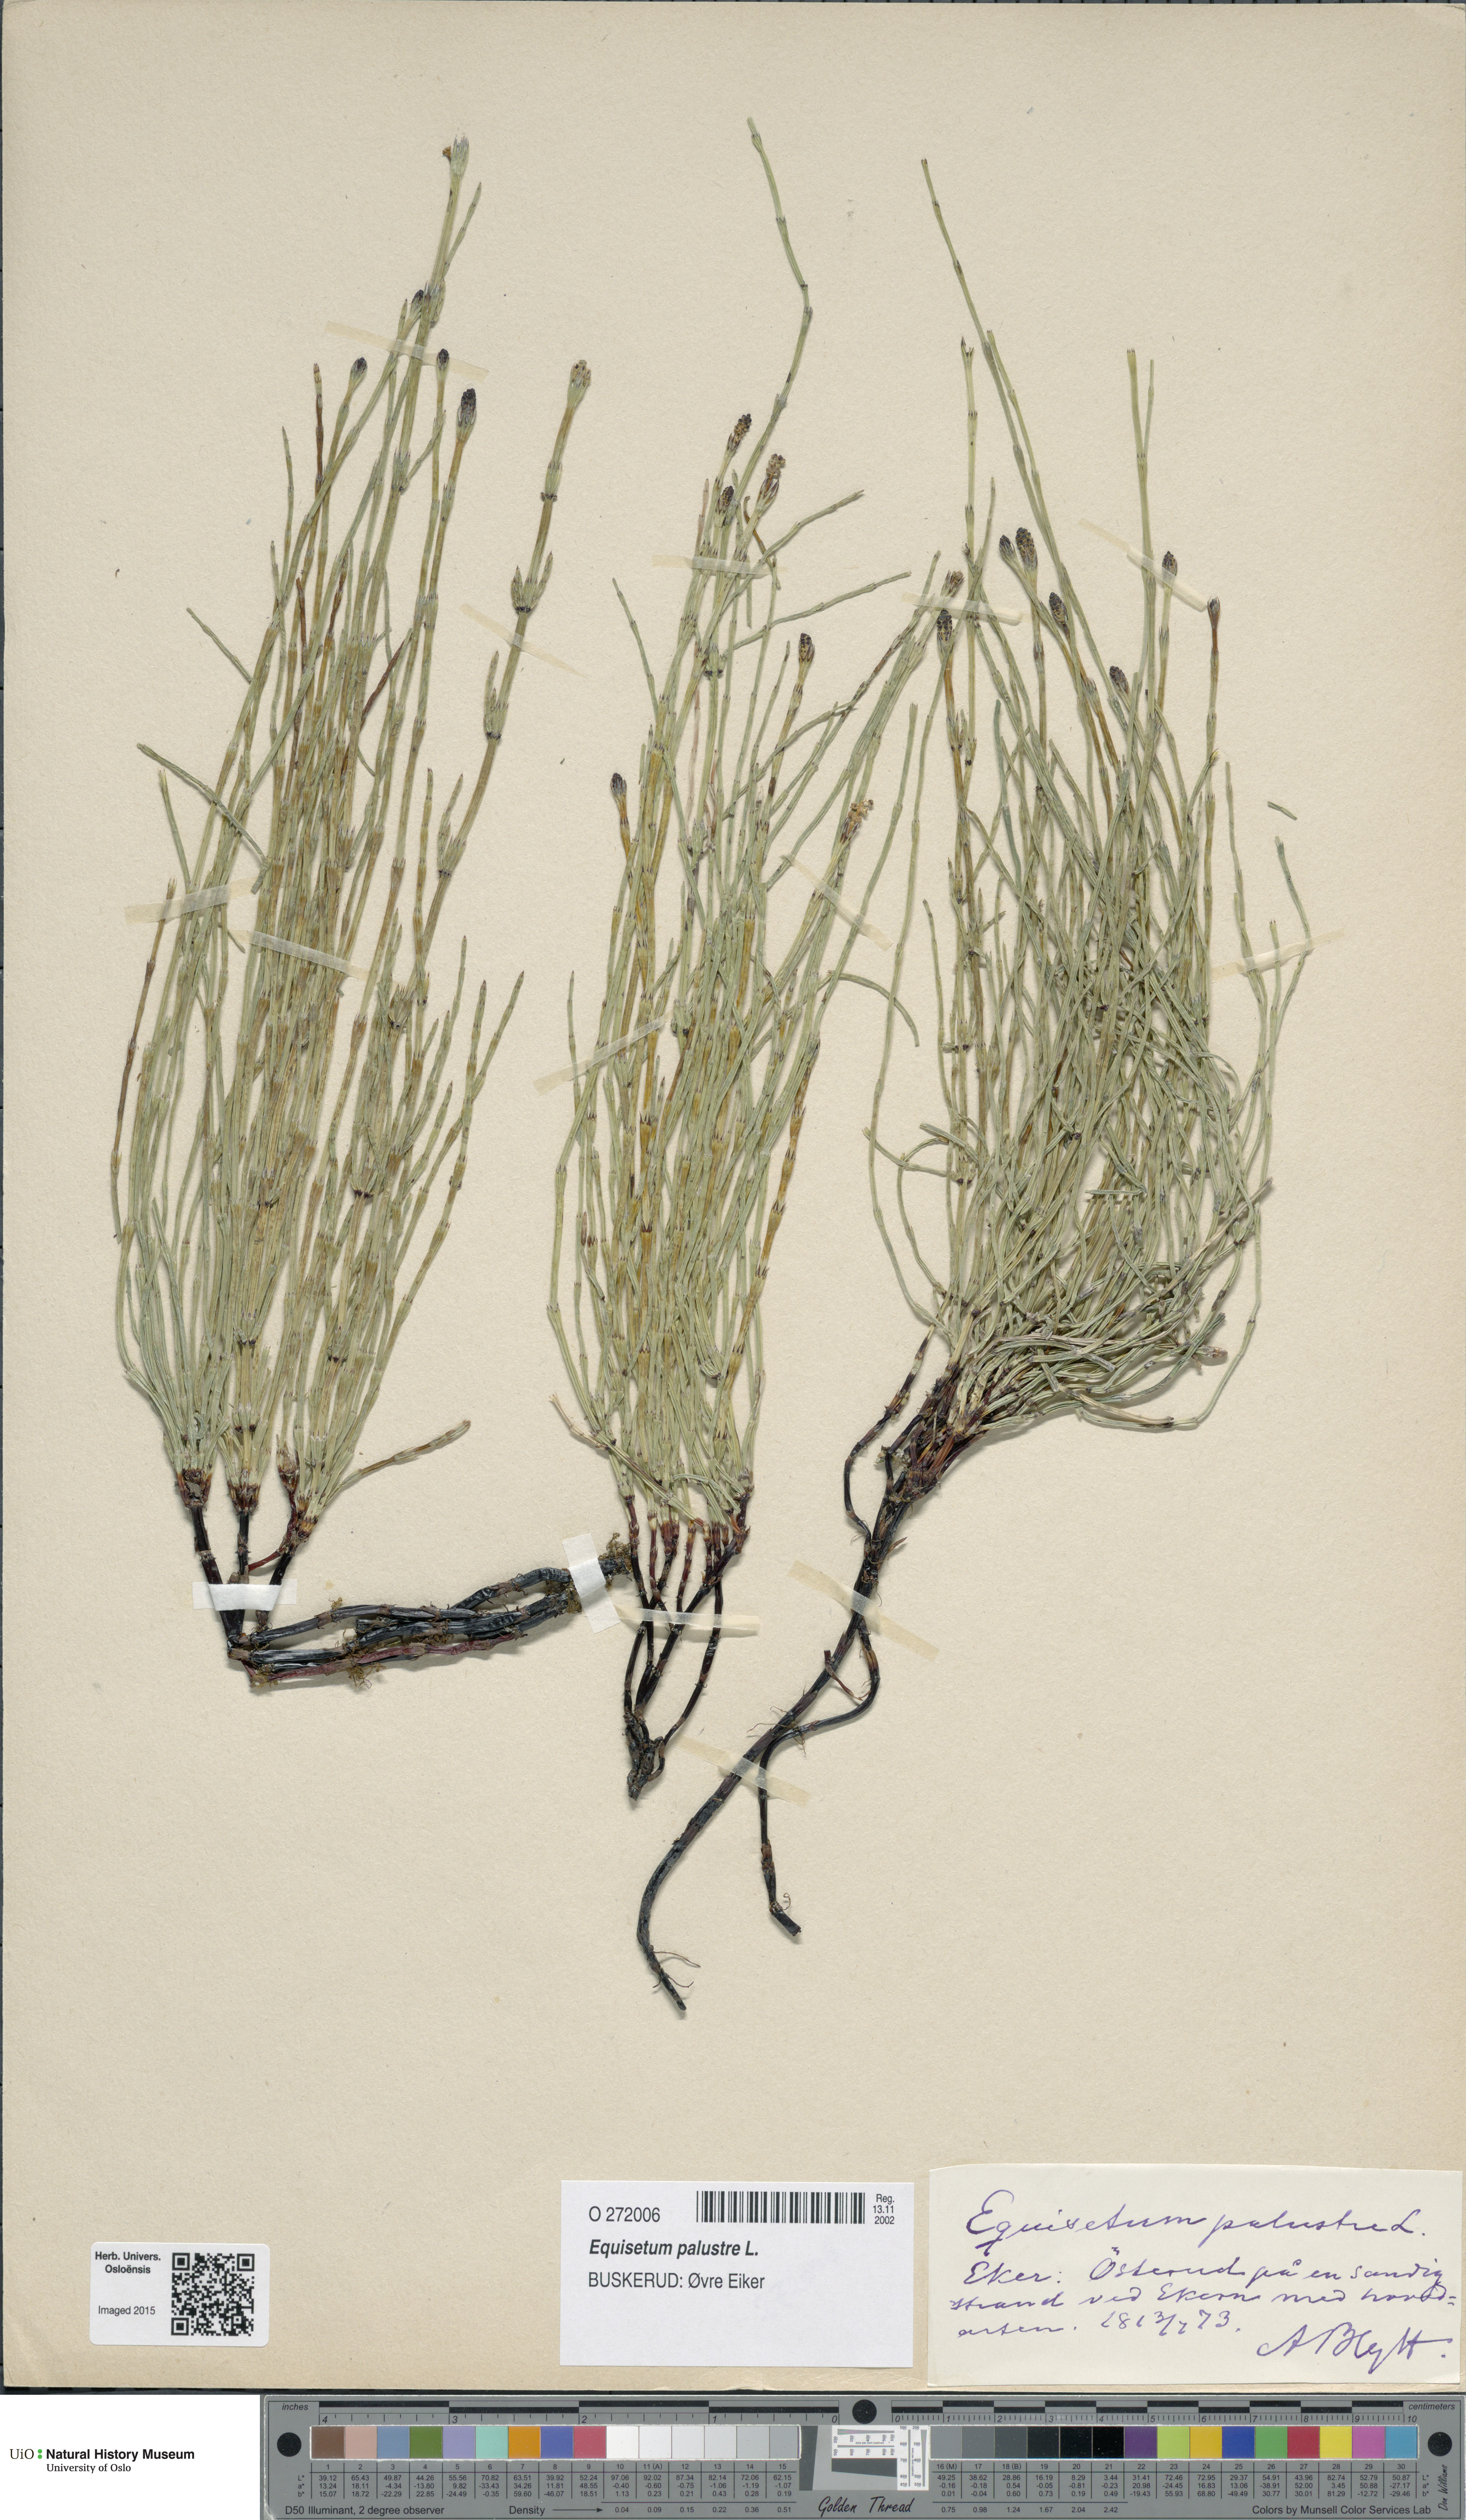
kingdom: Plantae
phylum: Tracheophyta
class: Polypodiopsida
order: Equisetales
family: Equisetaceae
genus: Equisetum
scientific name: Equisetum palustre
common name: Marsh horsetail
